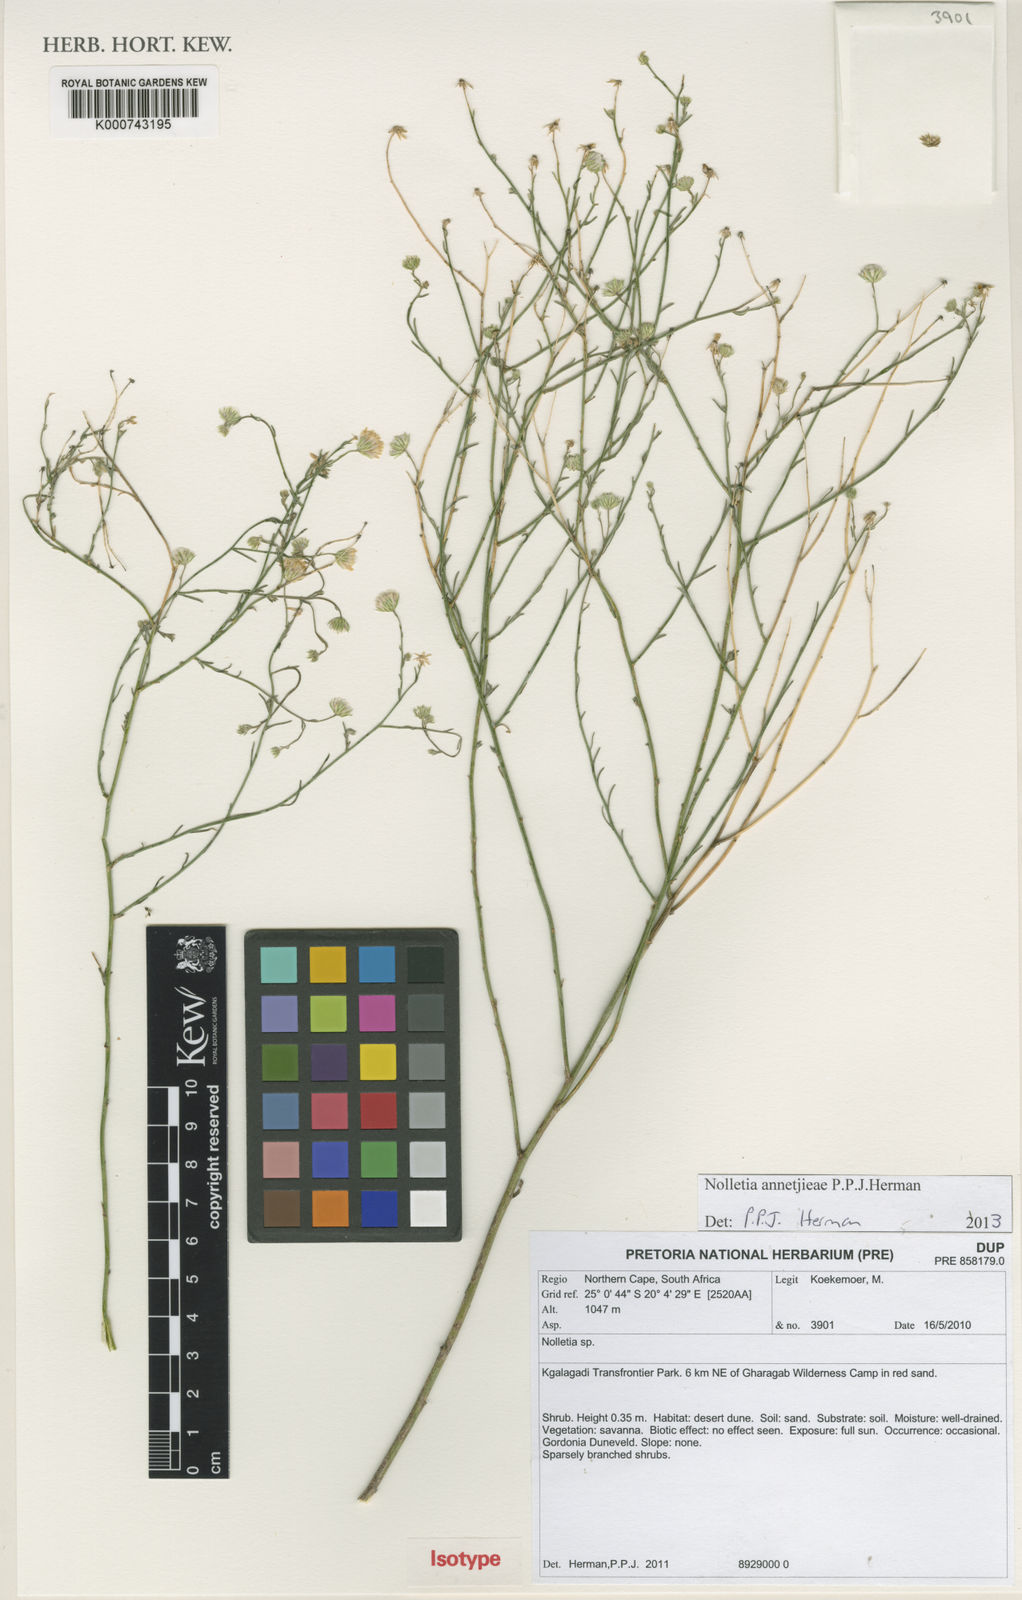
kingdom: Plantae
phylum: Tracheophyta
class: Magnoliopsida
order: Asterales
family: Asteraceae
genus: Nolletia
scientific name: Nolletia annetjieae
